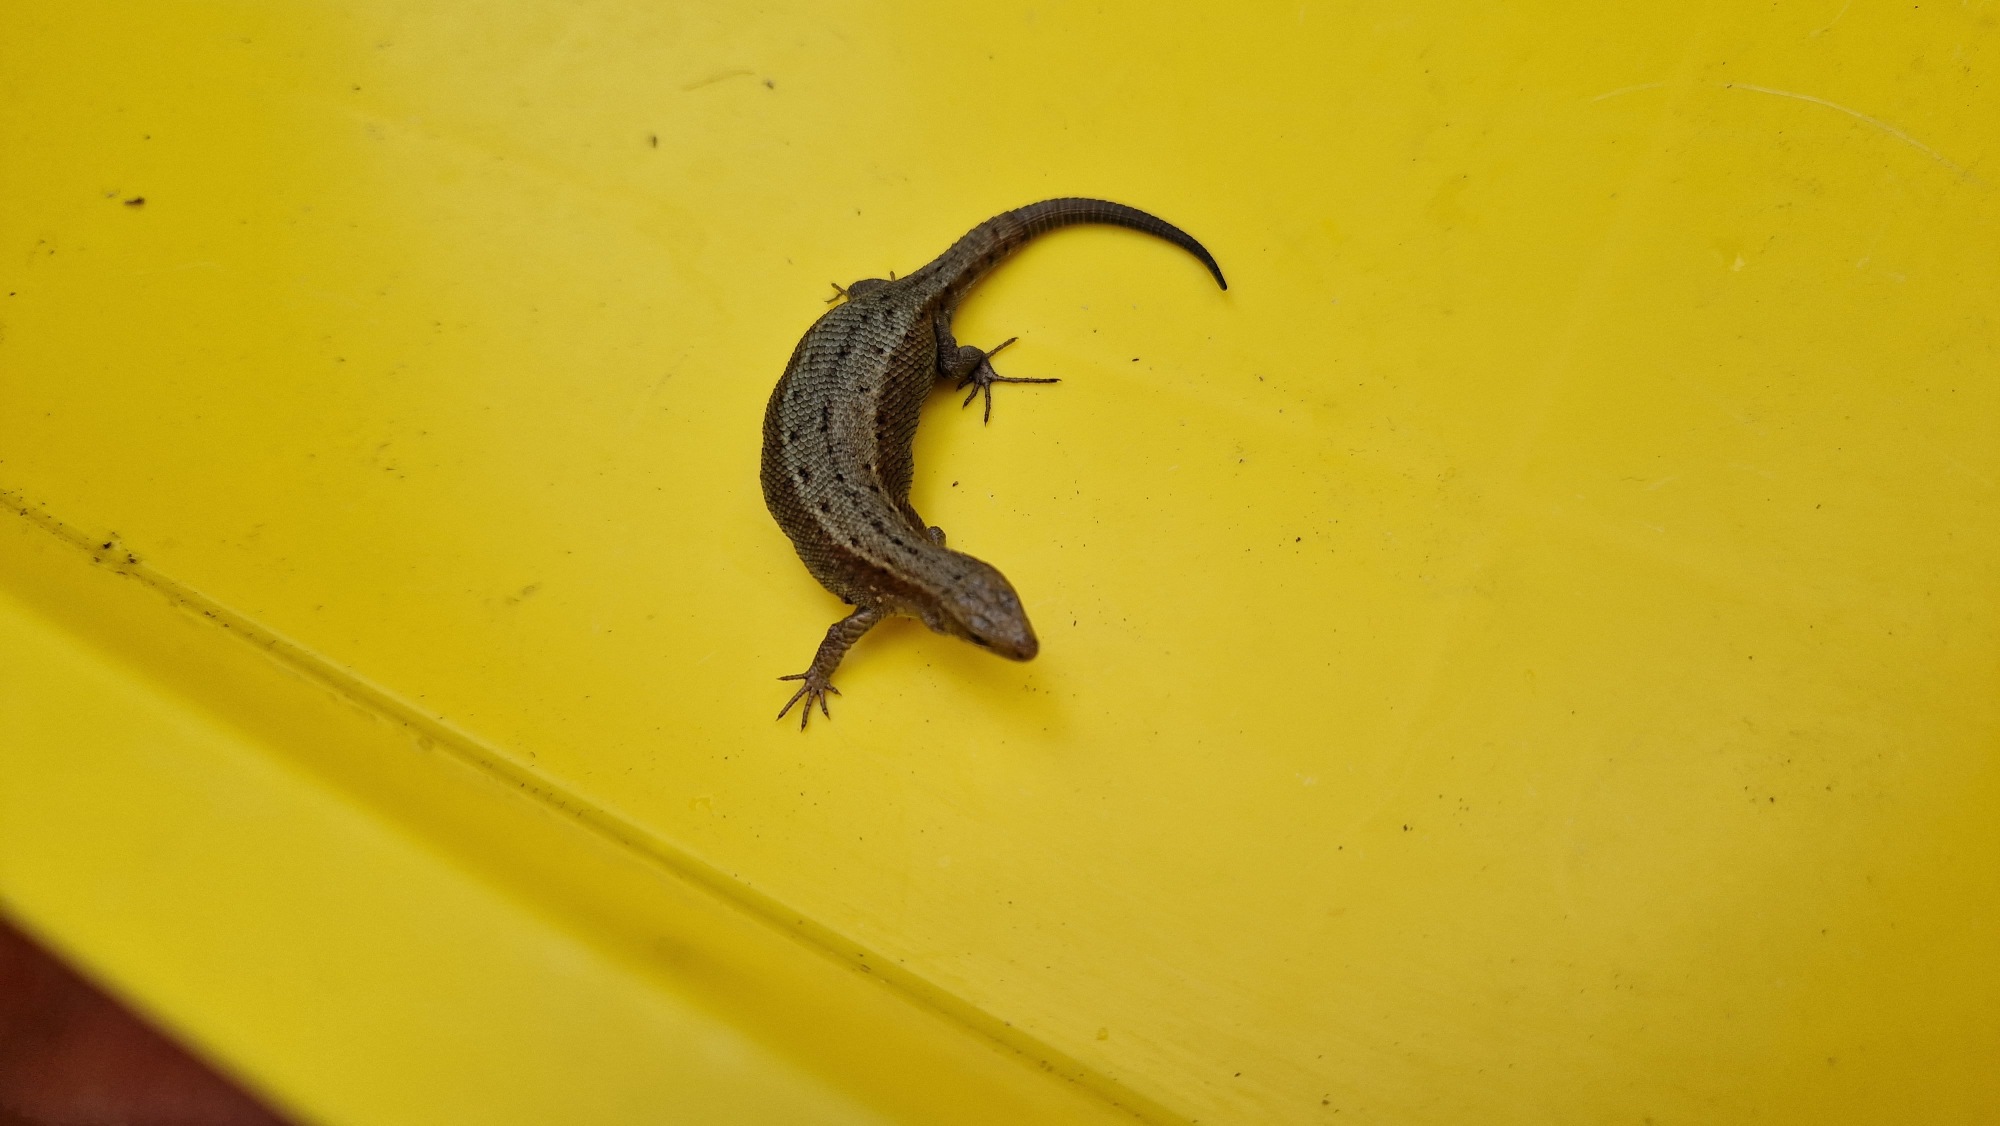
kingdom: Animalia
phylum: Chordata
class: Squamata
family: Lacertidae
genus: Zootoca
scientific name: Zootoca vivipara
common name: Skovfirben
